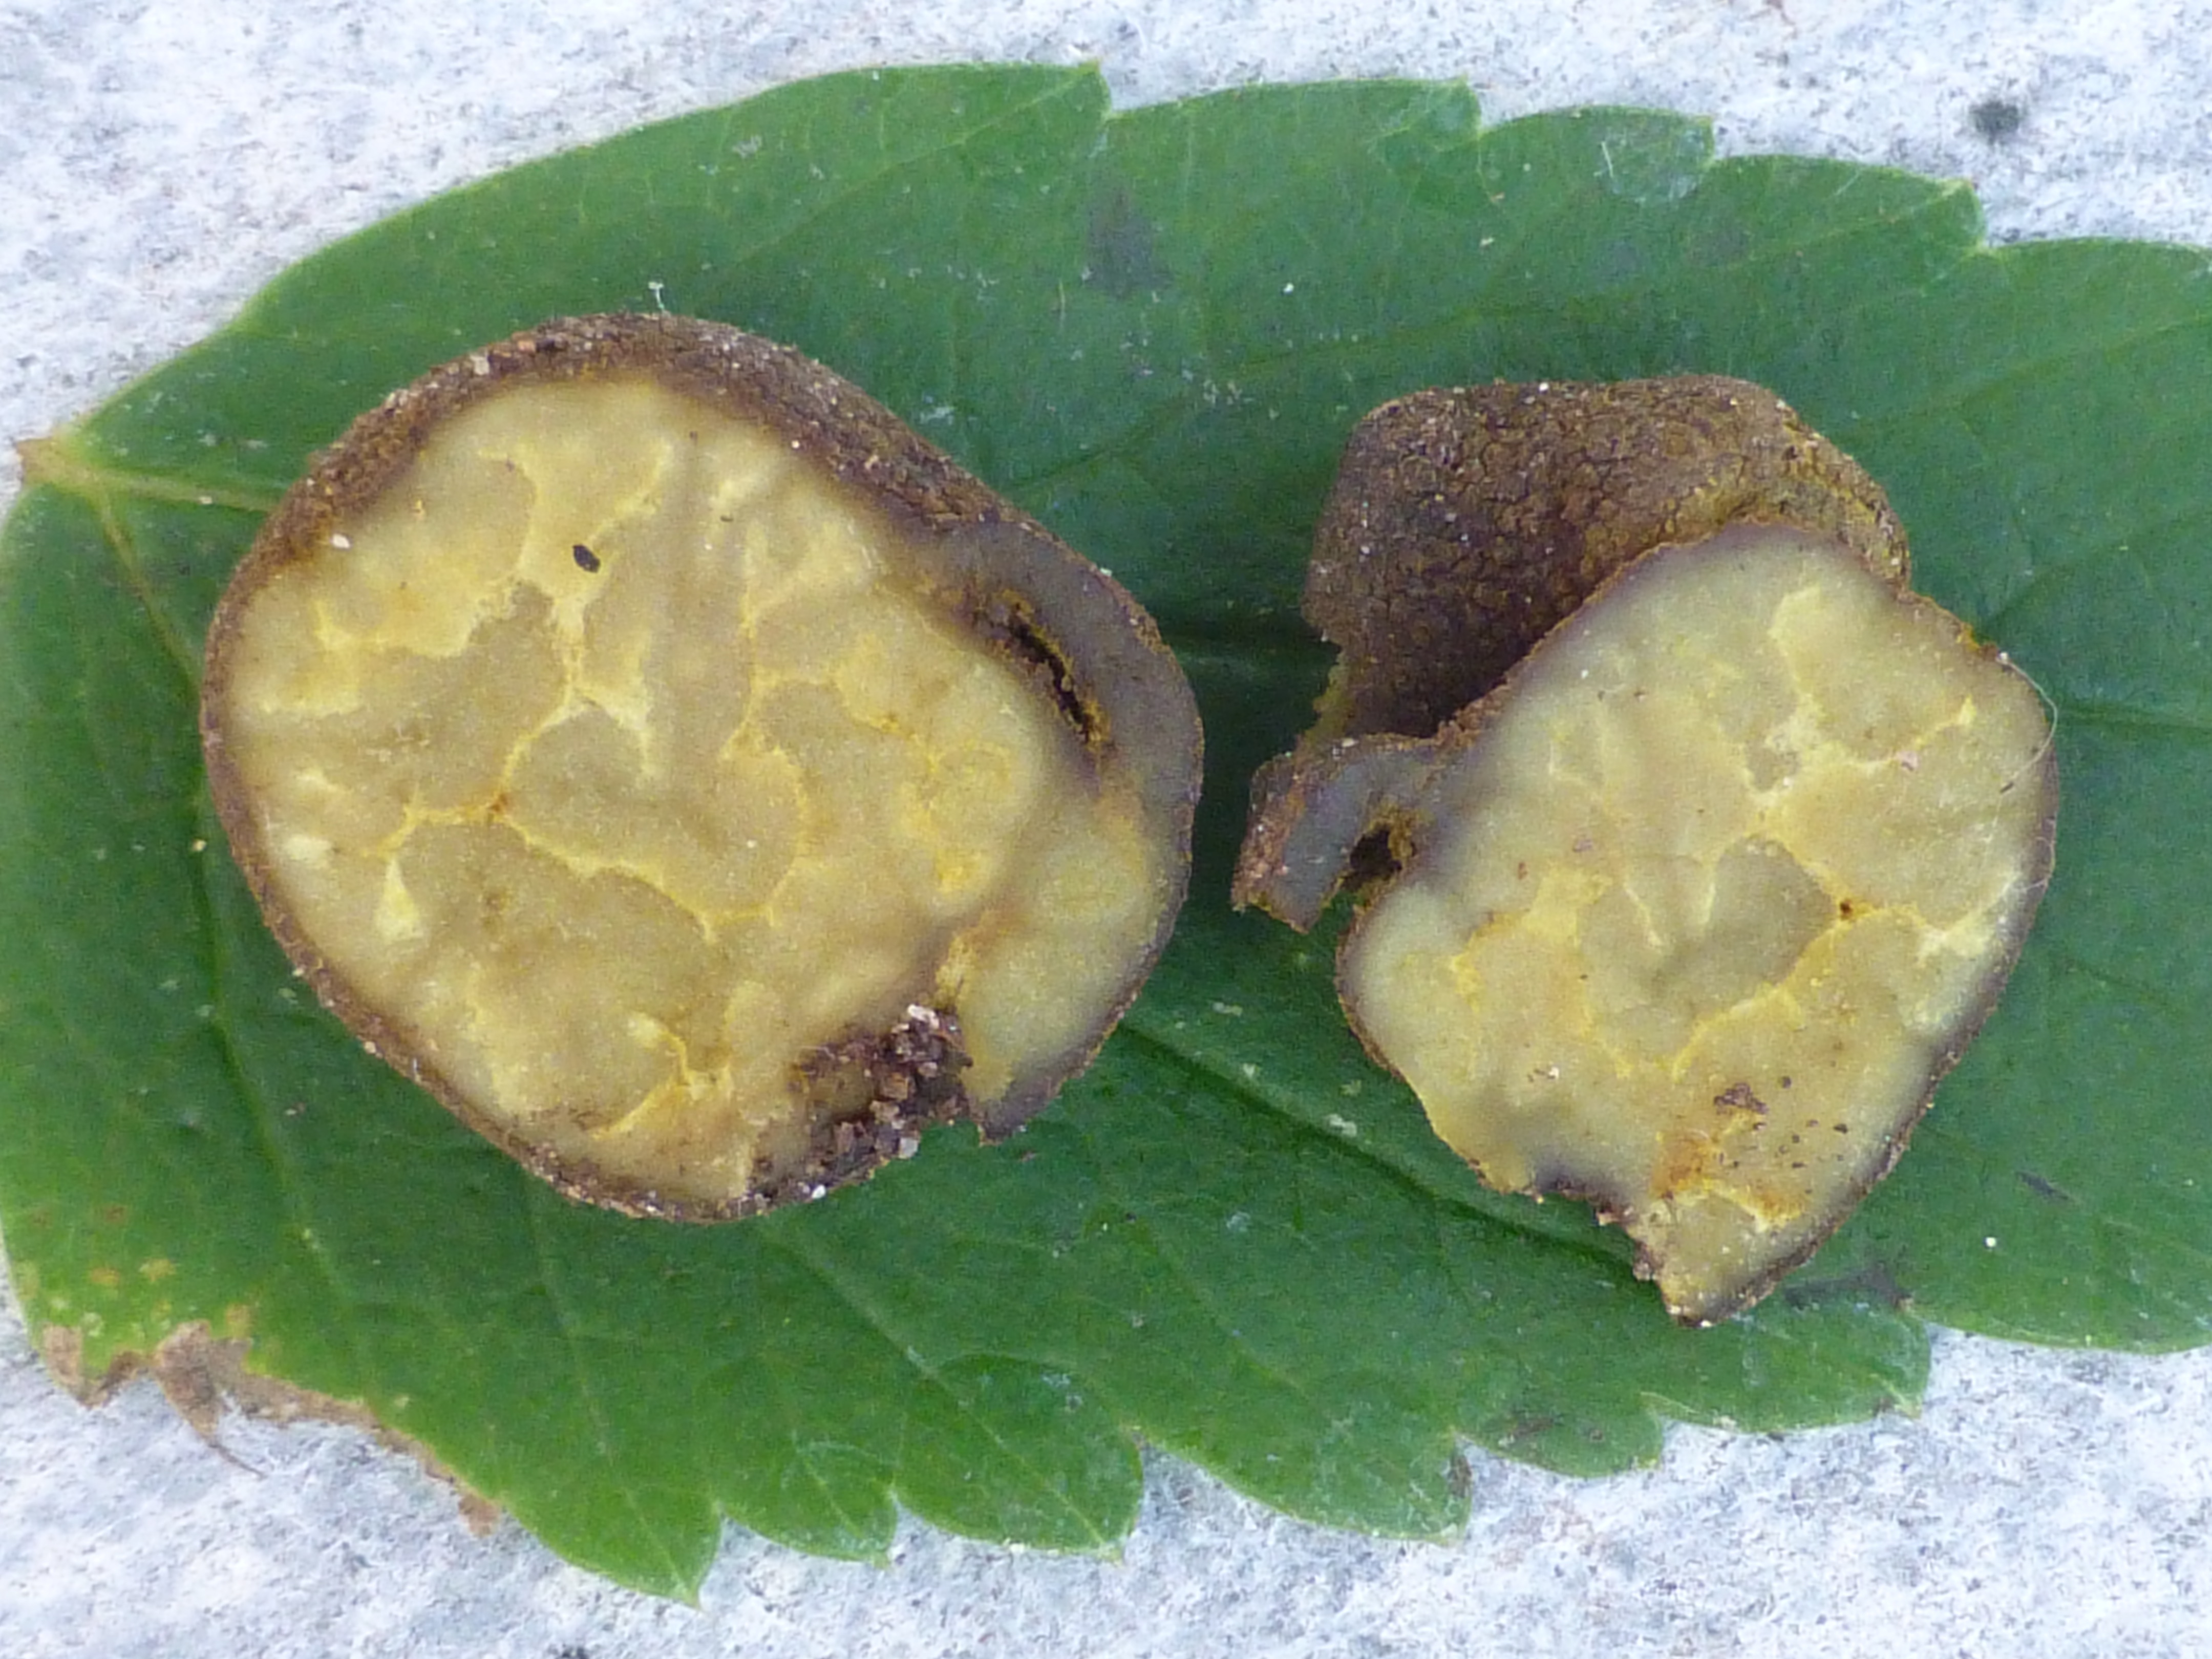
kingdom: Fungi
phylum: Ascomycota
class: Pezizomycetes
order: Pezizales
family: Pezizaceae
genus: Pachyphlodes
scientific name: Pachyphlodes nemoralis
